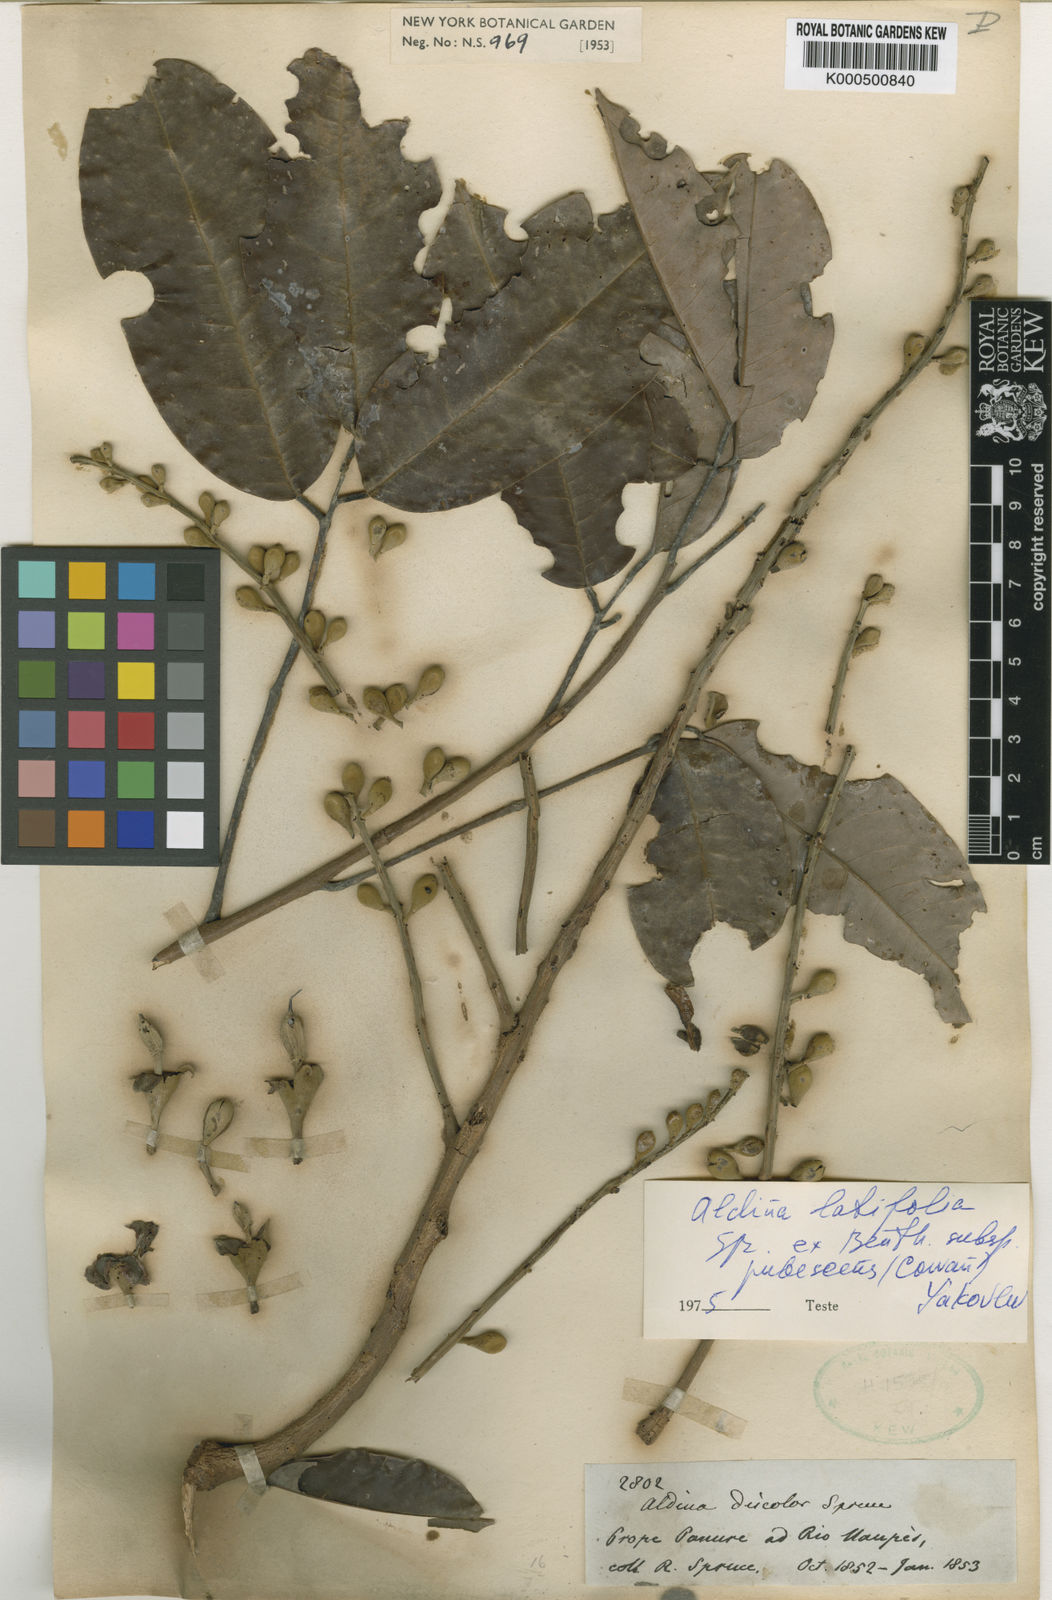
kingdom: Plantae
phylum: Tracheophyta
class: Magnoliopsida
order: Fabales
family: Fabaceae
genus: Aldina
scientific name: Aldina latifolia
